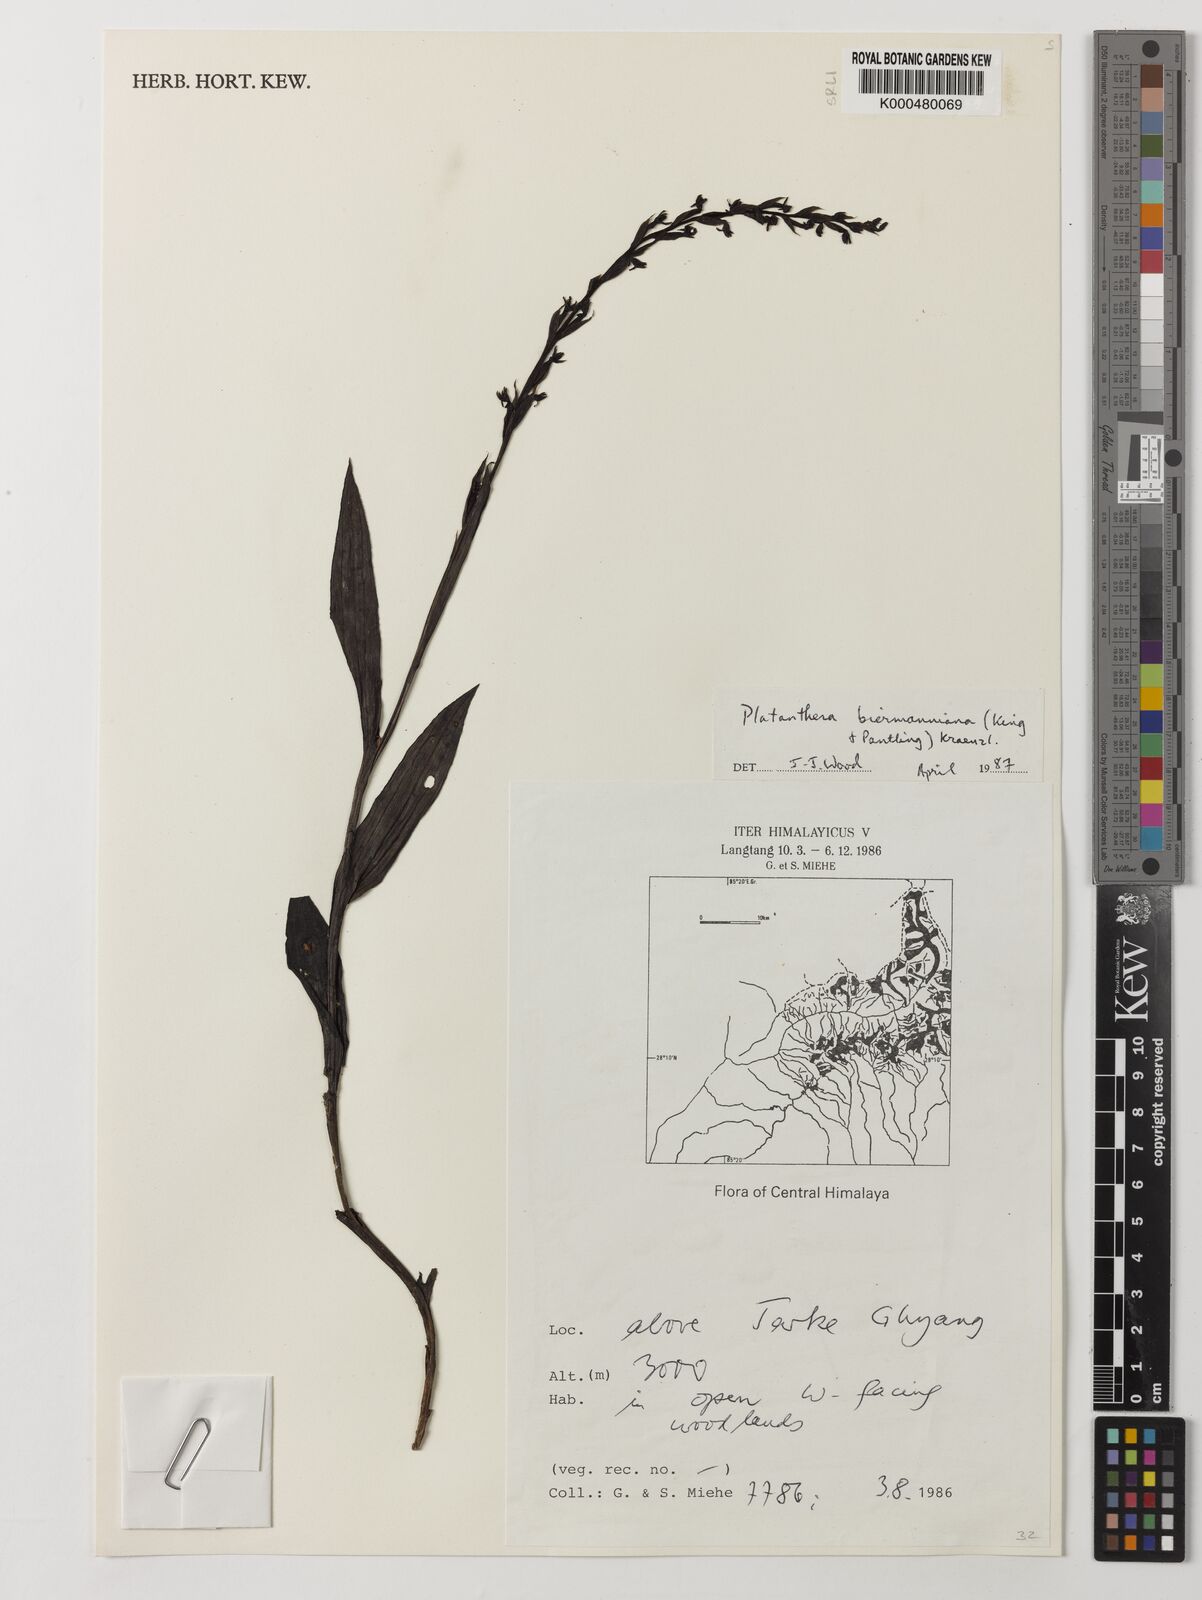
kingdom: Plantae
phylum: Tracheophyta
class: Liliopsida
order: Asparagales
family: Orchidaceae
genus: Peristylus
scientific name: Peristylus biermannianus
